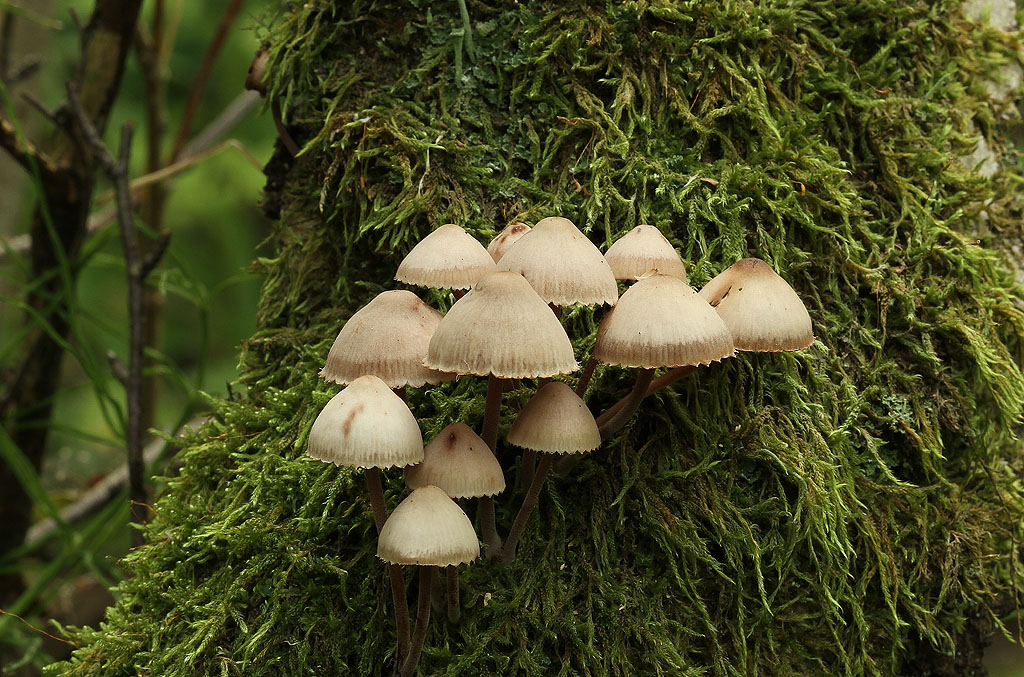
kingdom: Fungi
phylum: Basidiomycota
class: Agaricomycetes
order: Agaricales
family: Mycenaceae
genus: Mycena
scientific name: Mycena haematopus
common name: blødende huesvamp
